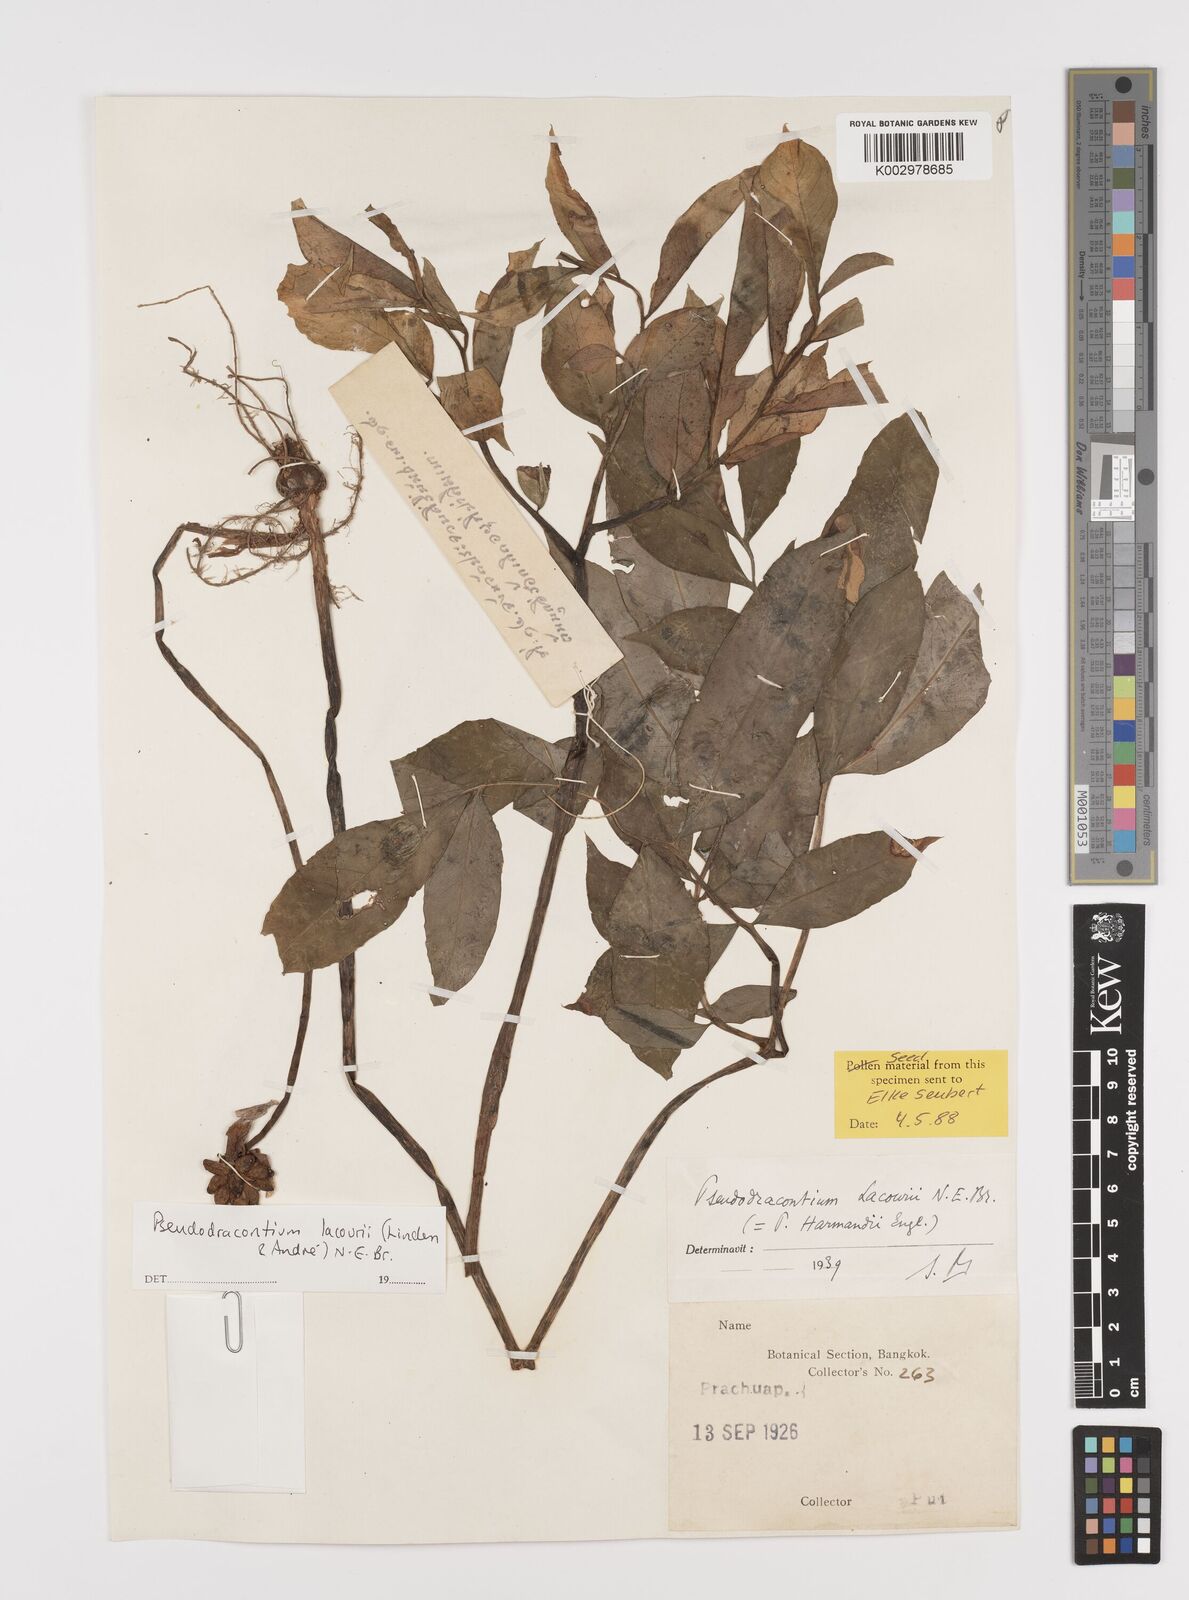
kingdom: Plantae
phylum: Tracheophyta
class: Liliopsida
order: Alismatales
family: Araceae
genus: Amorphophallus
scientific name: Amorphophallus lacourii
